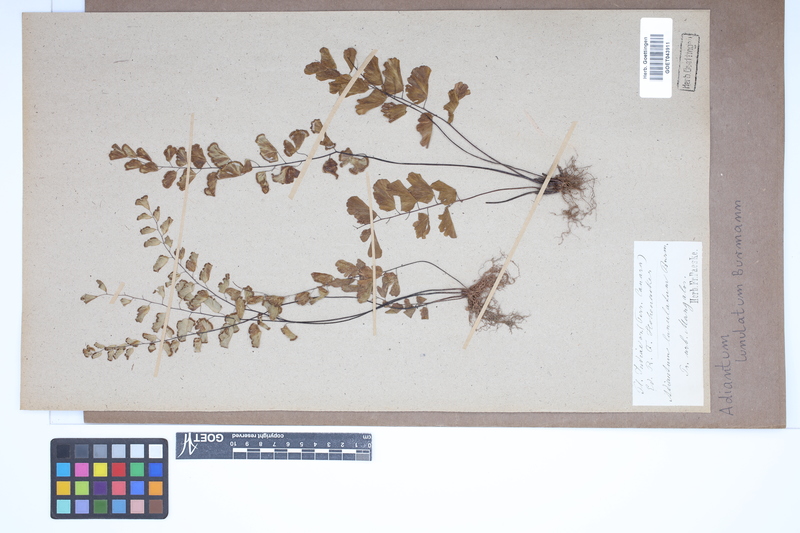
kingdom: Plantae
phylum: Tracheophyta
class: Polypodiopsida
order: Polypodiales
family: Pteridaceae
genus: Adiantum
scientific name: Adiantum philippense
